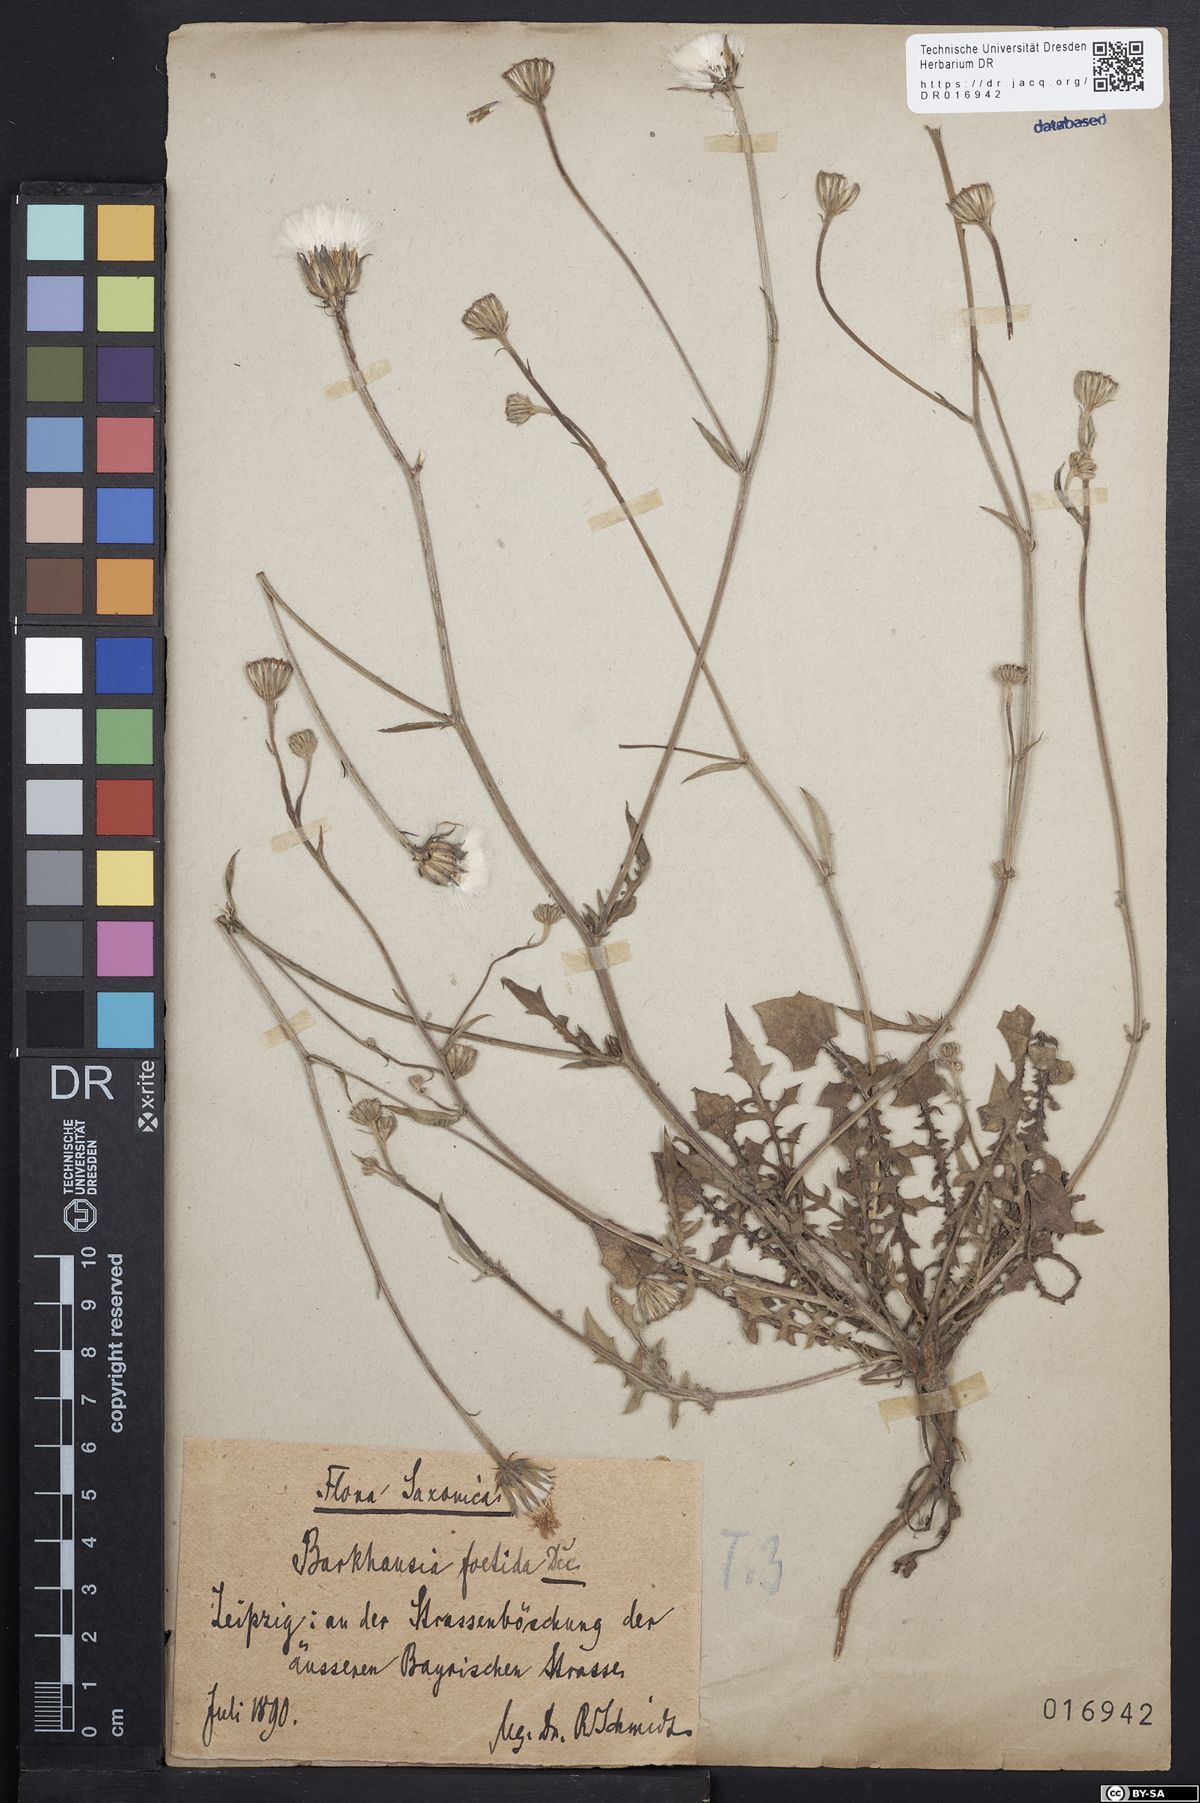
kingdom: Plantae
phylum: Tracheophyta
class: Magnoliopsida
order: Asterales
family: Asteraceae
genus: Crepis
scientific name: Crepis foetida
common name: Stinking hawk's-beard
